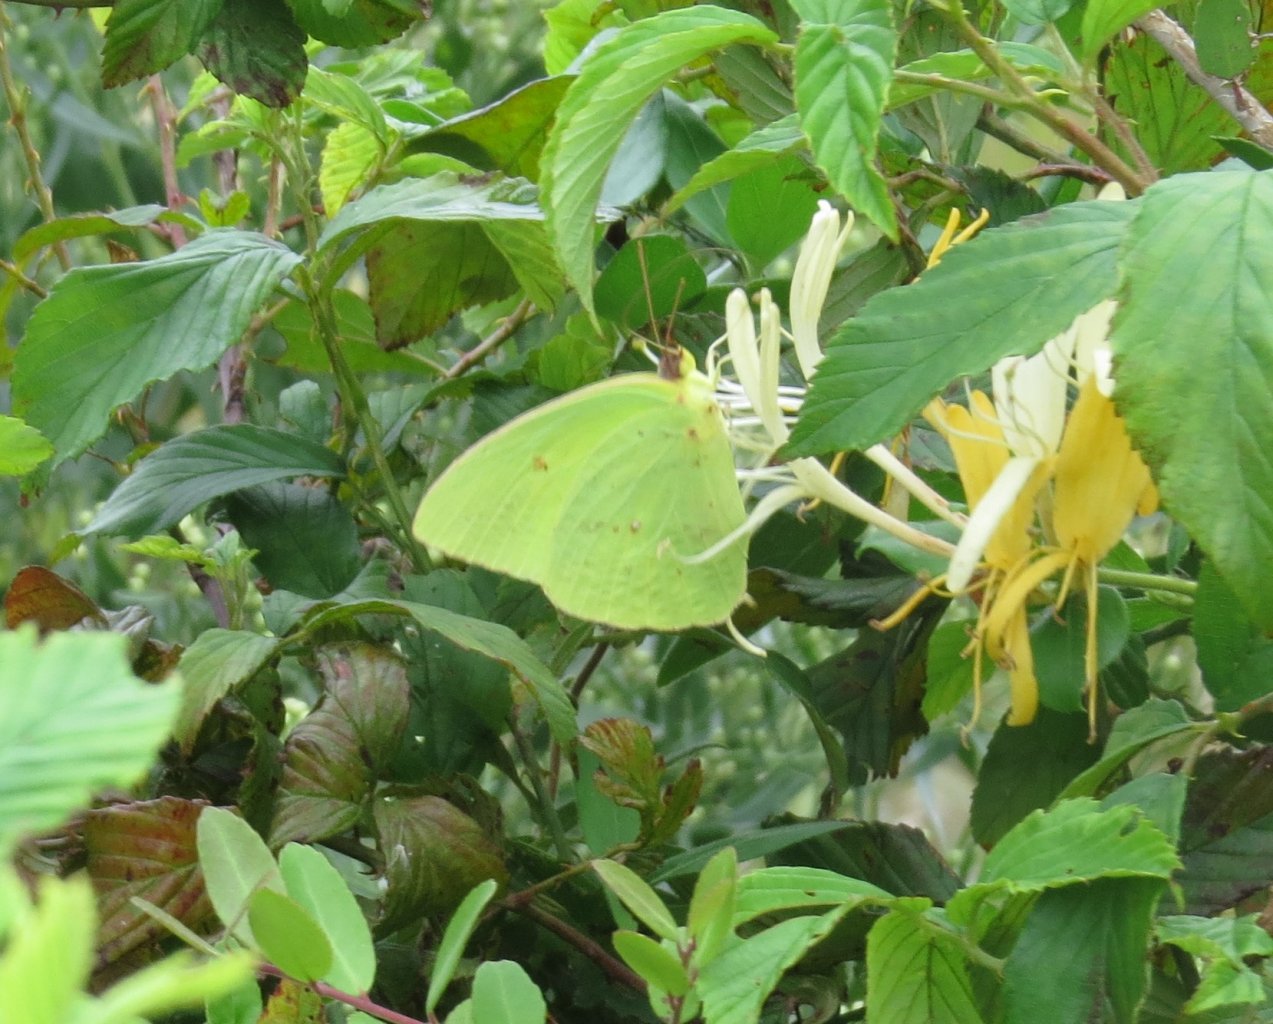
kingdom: Animalia
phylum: Arthropoda
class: Insecta
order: Lepidoptera
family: Pieridae
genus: Phoebis
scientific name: Phoebis sennae
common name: Cloudless Sulphur
